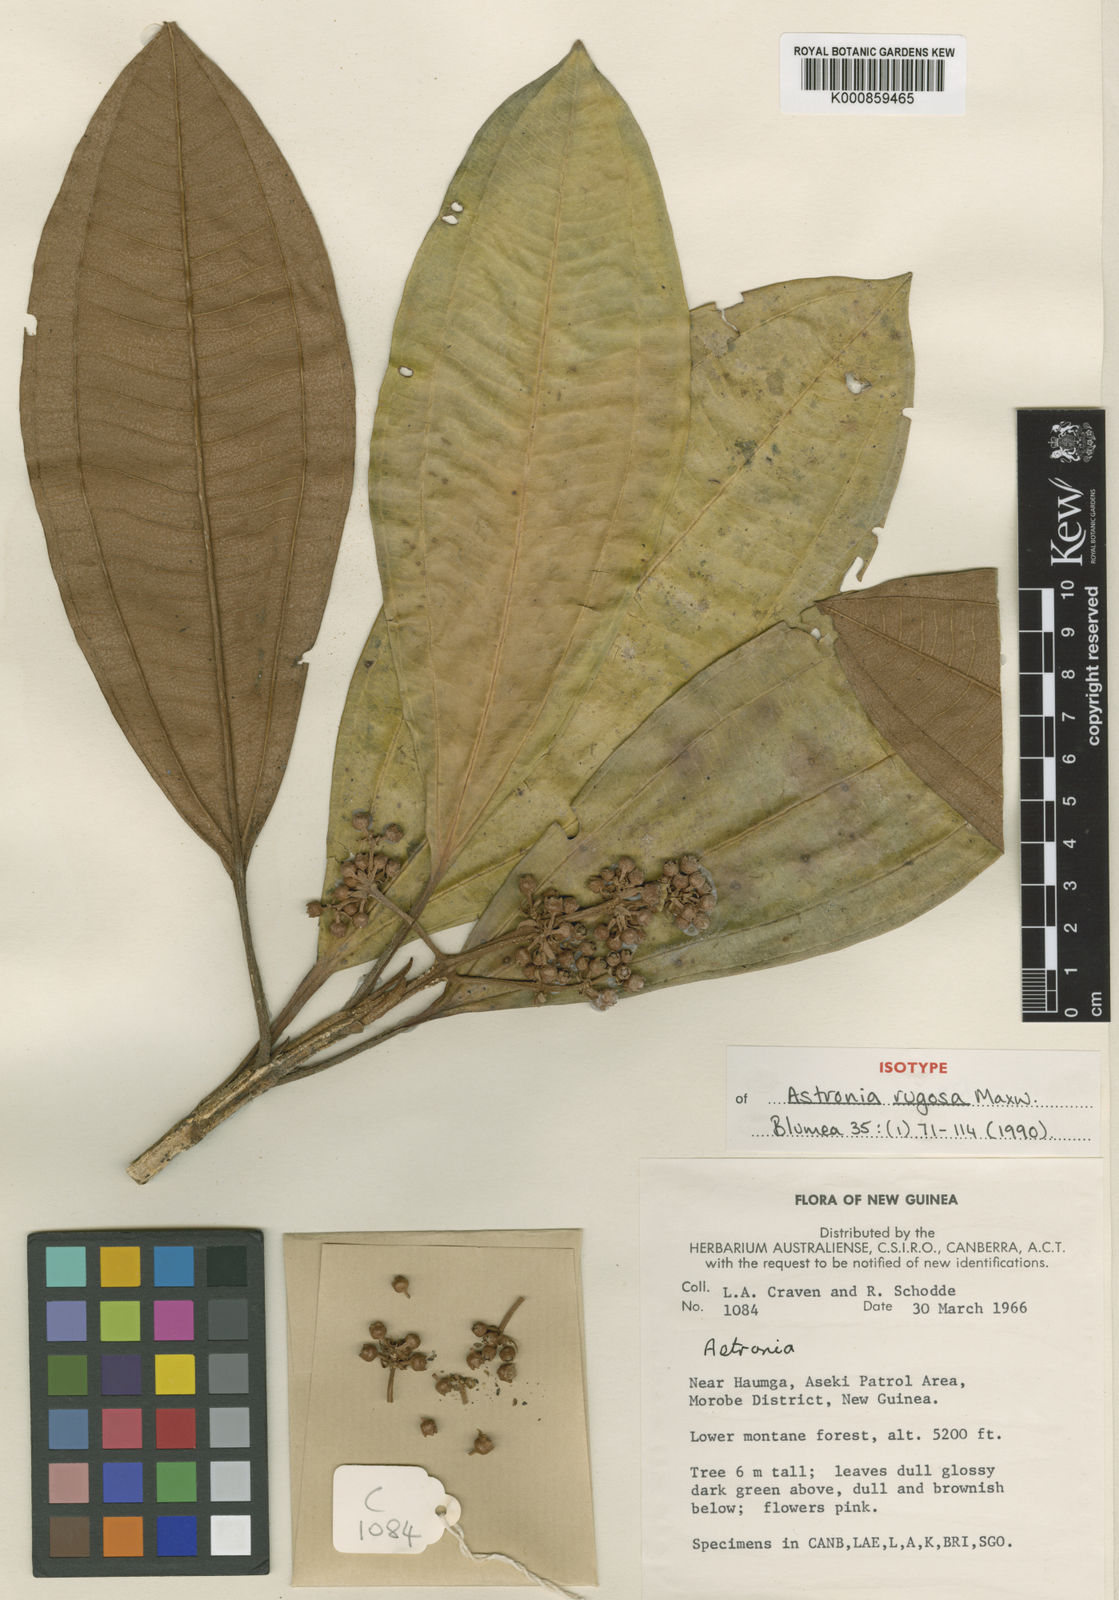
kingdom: Plantae
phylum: Tracheophyta
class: Magnoliopsida
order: Myrtales
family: Melastomataceae
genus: Astronia
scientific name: Astronia rugosa
